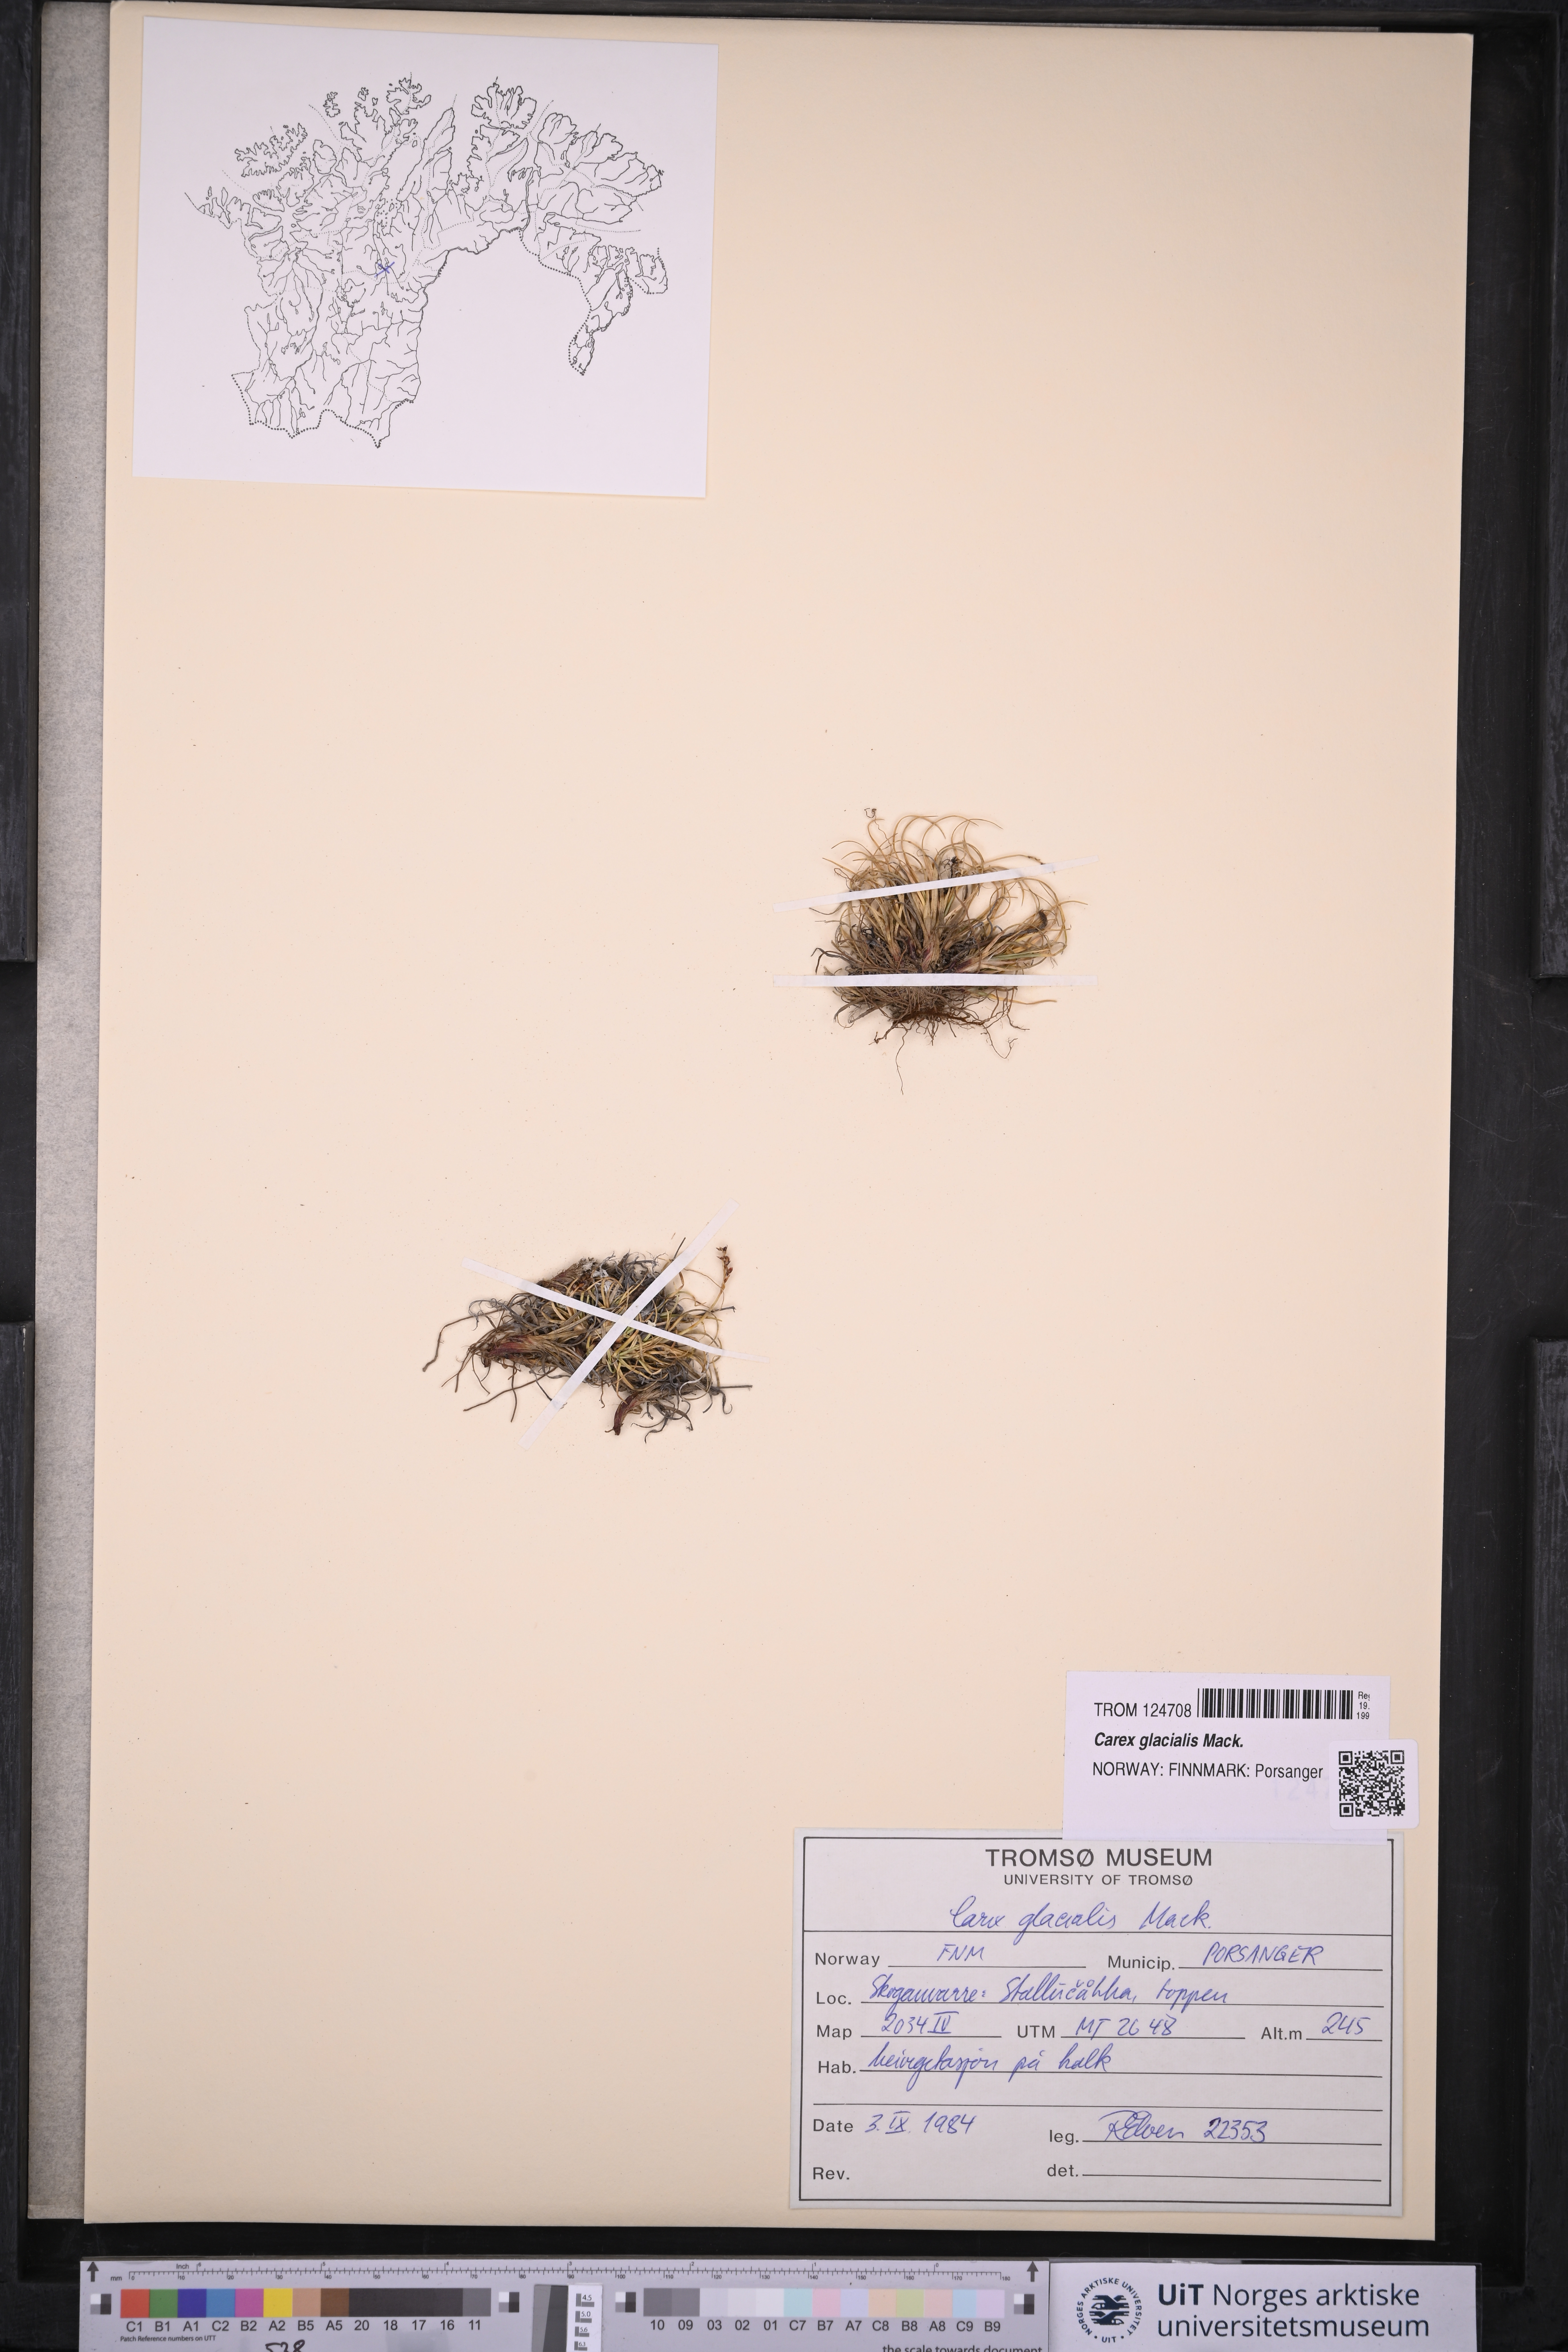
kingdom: Plantae
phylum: Tracheophyta
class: Liliopsida
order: Poales
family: Cyperaceae
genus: Carex
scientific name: Carex glacialis
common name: Newfoundland sedge
